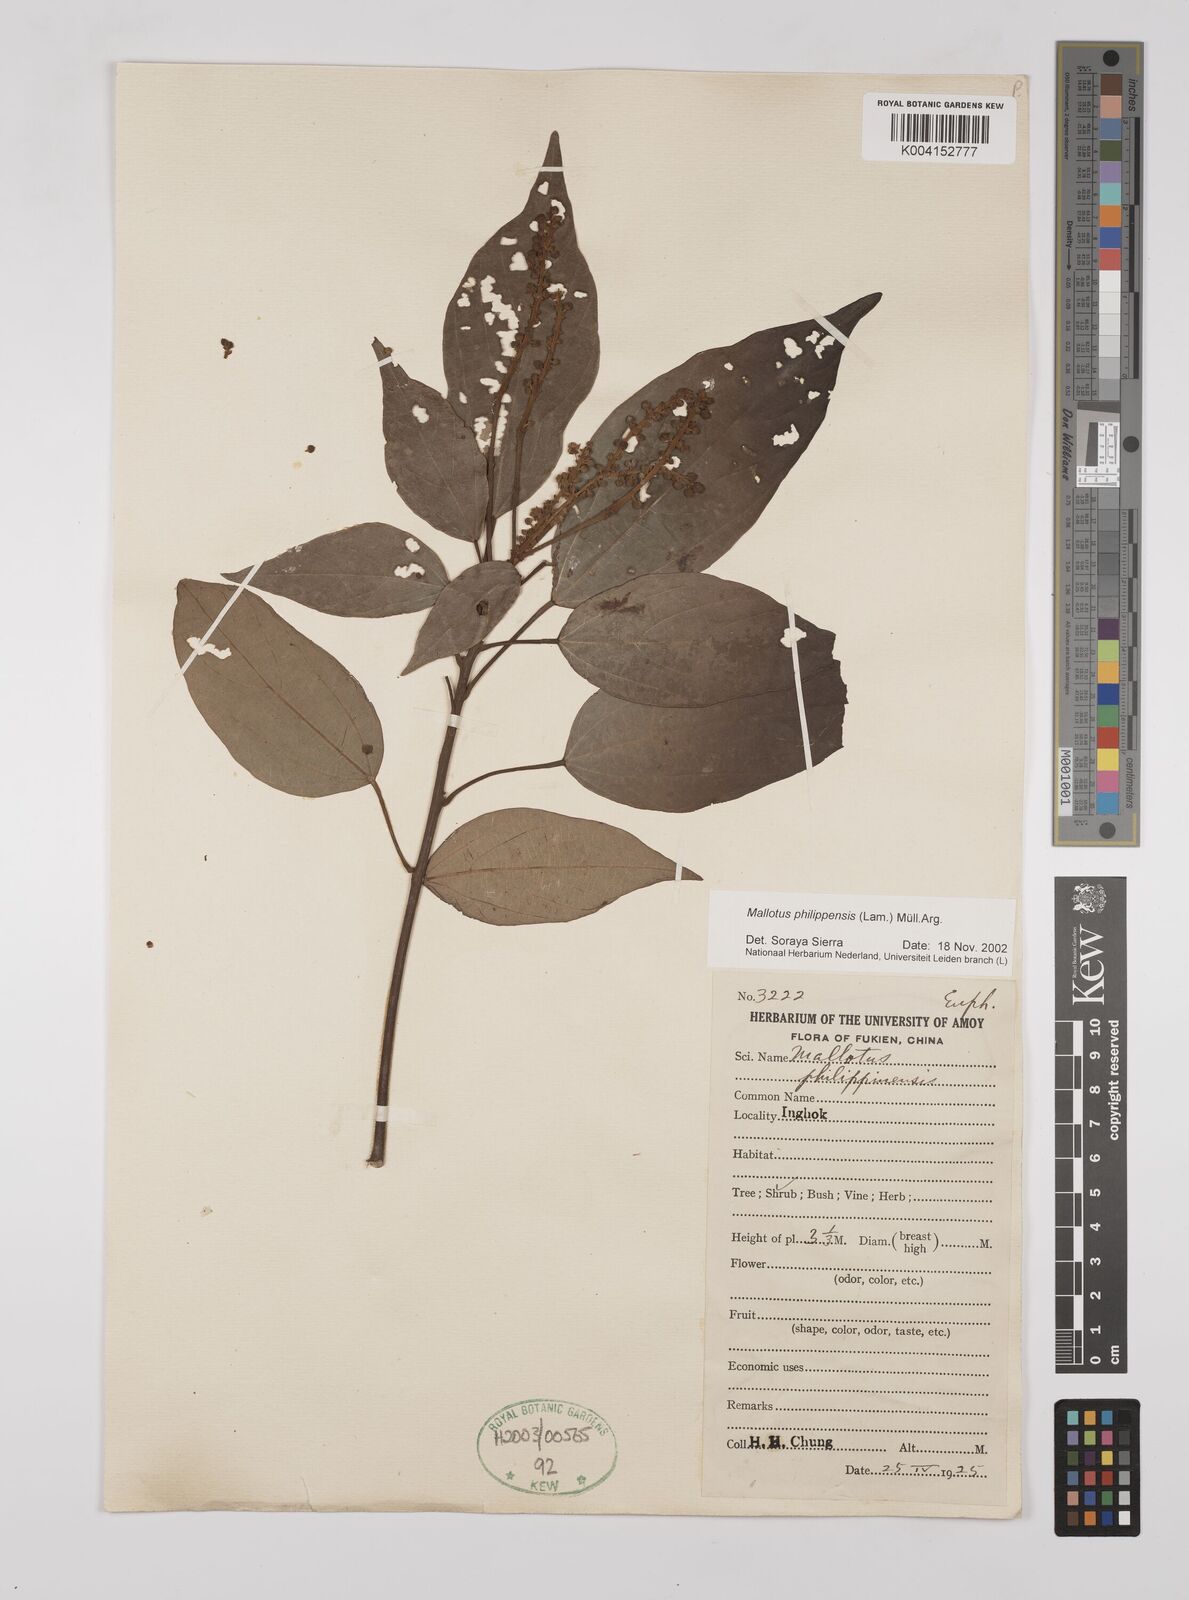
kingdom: Plantae
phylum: Tracheophyta
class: Magnoliopsida
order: Malpighiales
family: Euphorbiaceae
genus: Mallotus
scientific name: Mallotus philippensis
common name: Kamala tree
